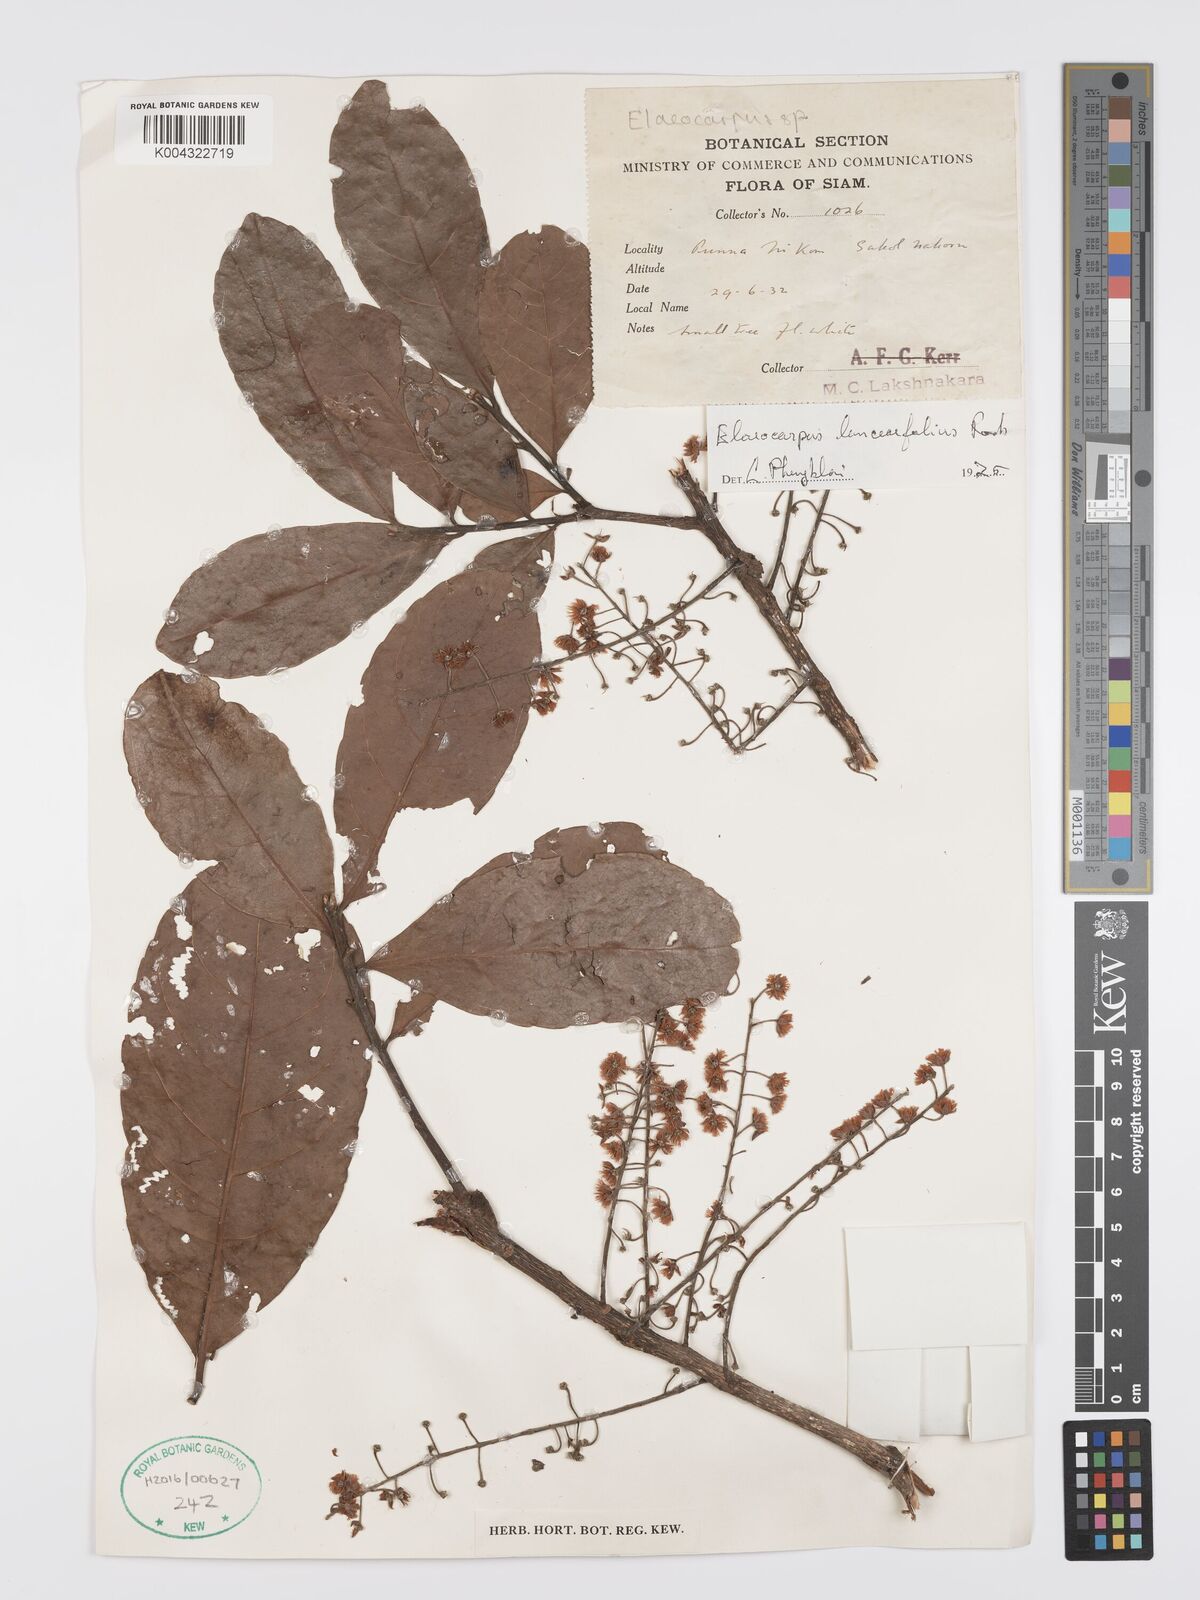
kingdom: Plantae
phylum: Tracheophyta
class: Magnoliopsida
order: Oxalidales
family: Elaeocarpaceae
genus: Elaeocarpus
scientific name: Elaeocarpus lanceifolius
